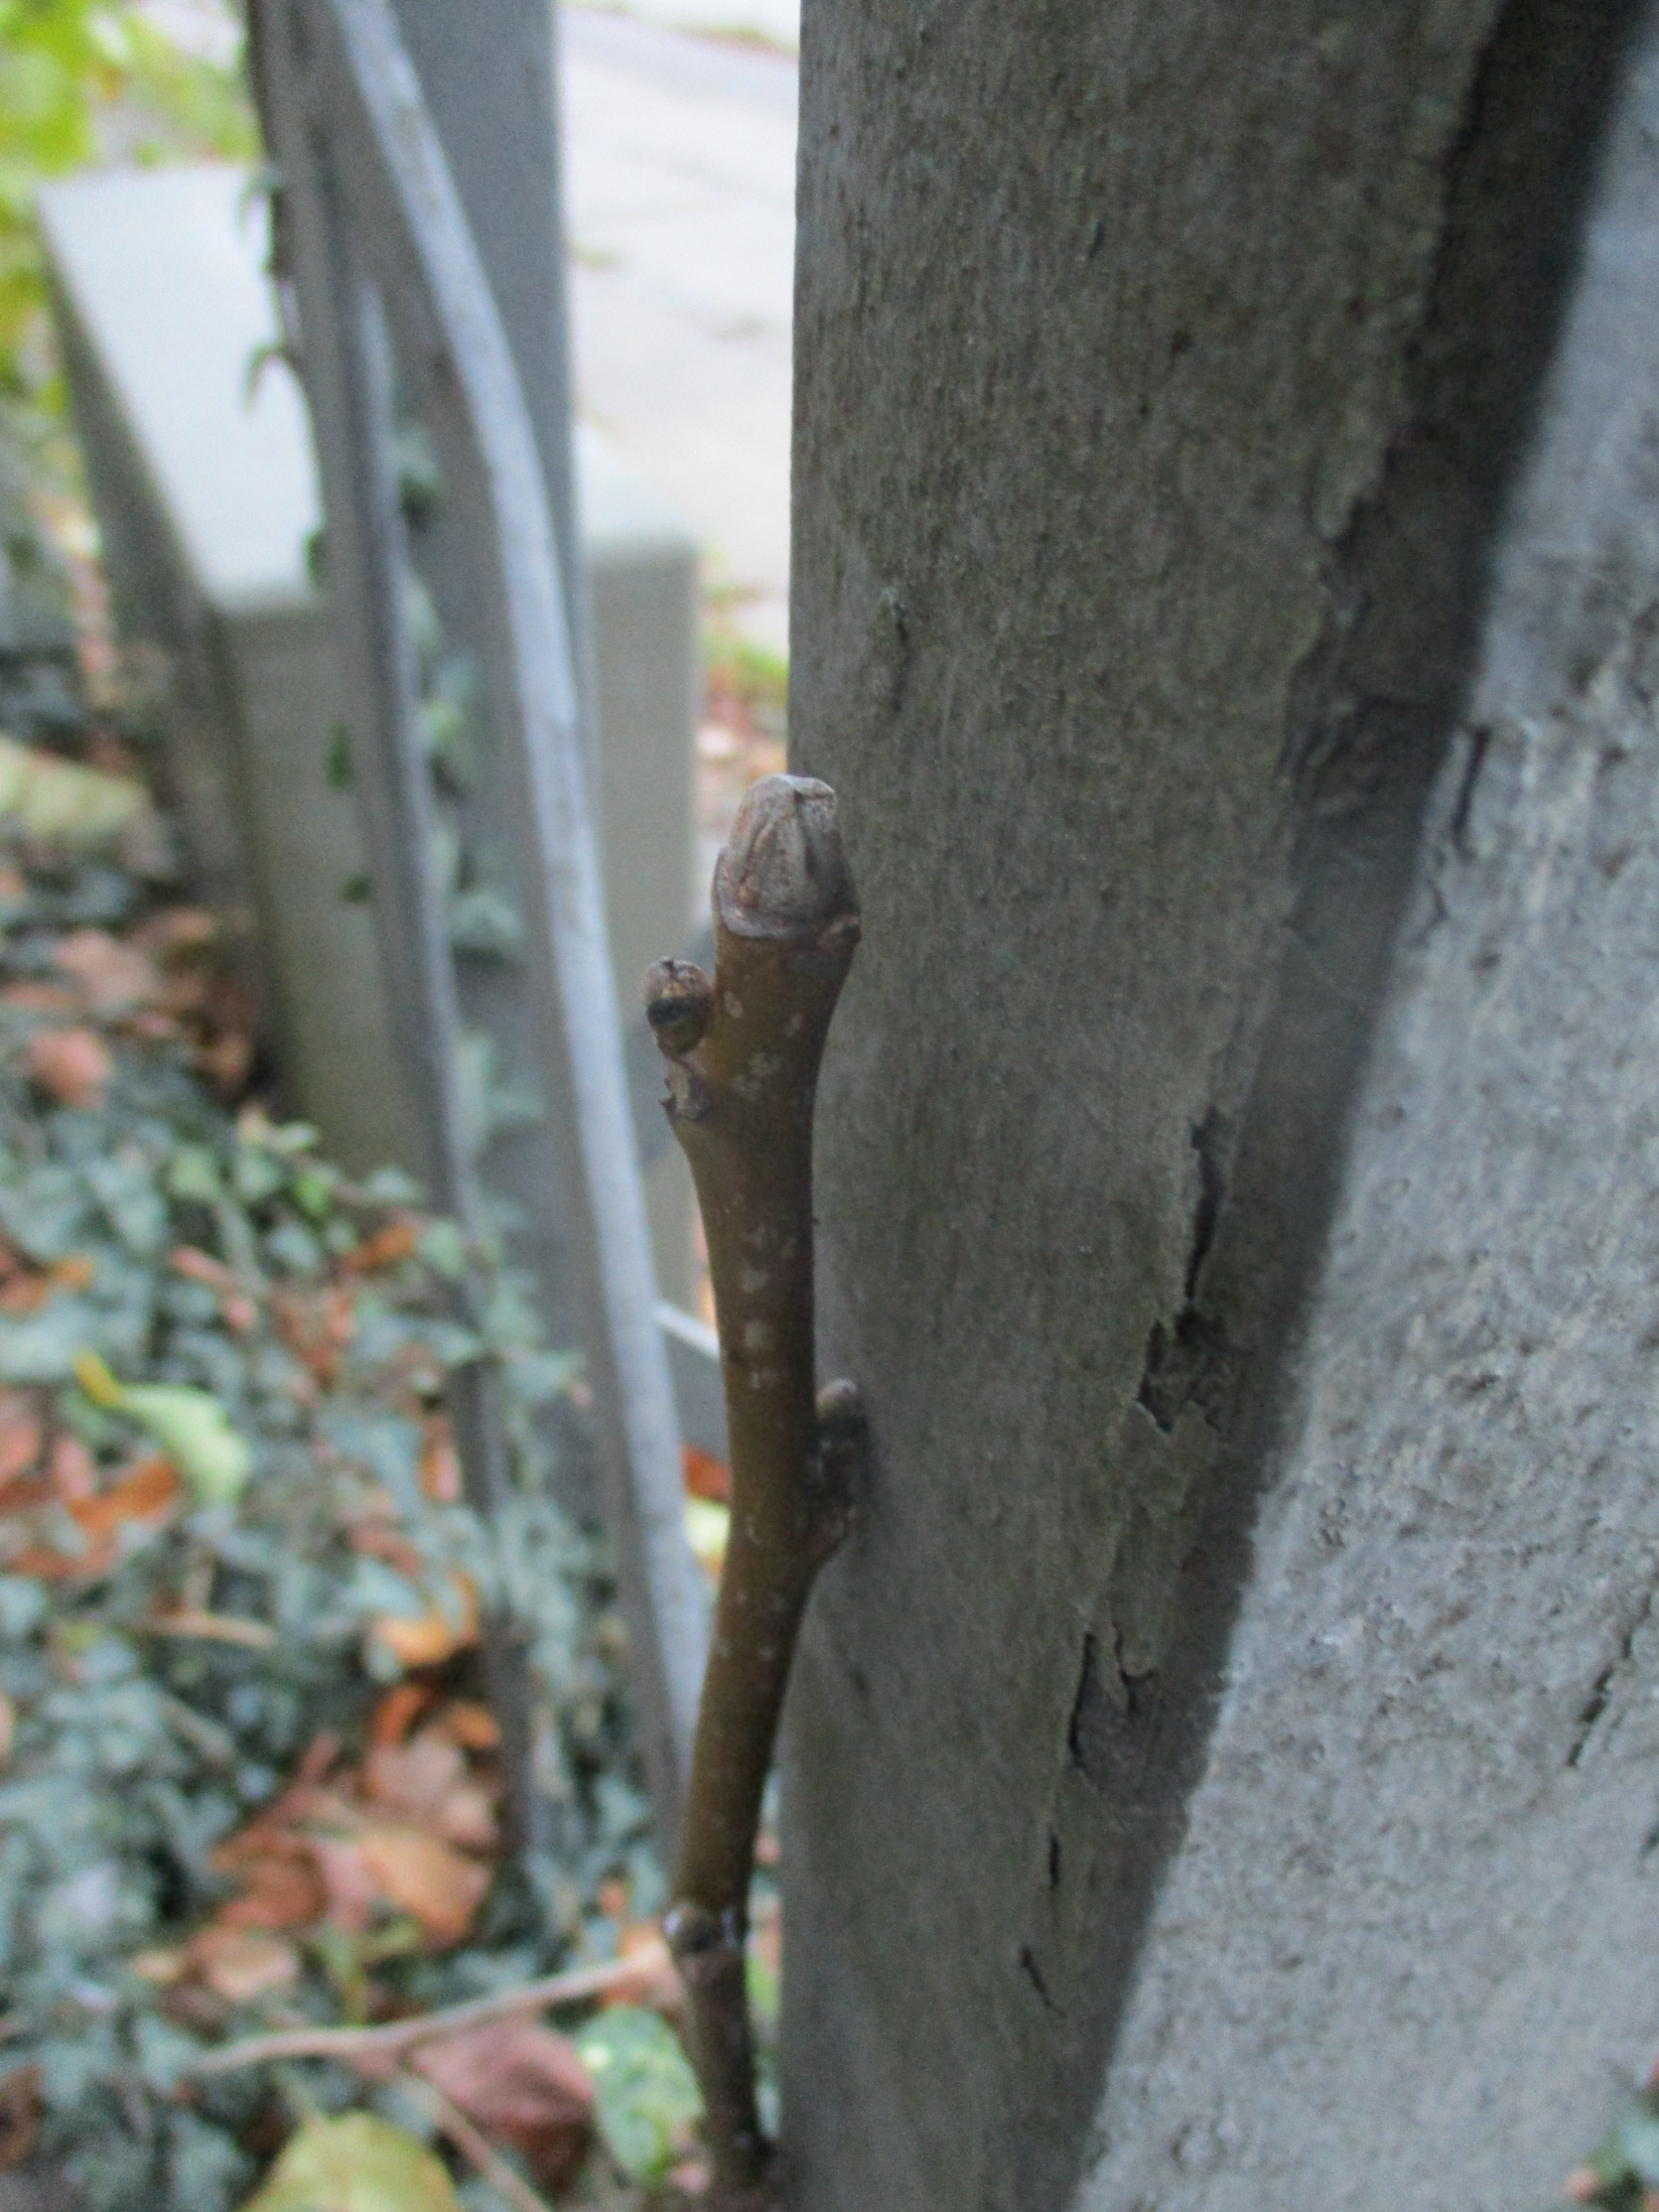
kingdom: Plantae
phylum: Tracheophyta
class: Magnoliopsida
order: Apiales
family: Araliaceae
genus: Hedera
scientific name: Hedera helix
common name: Vedbend
